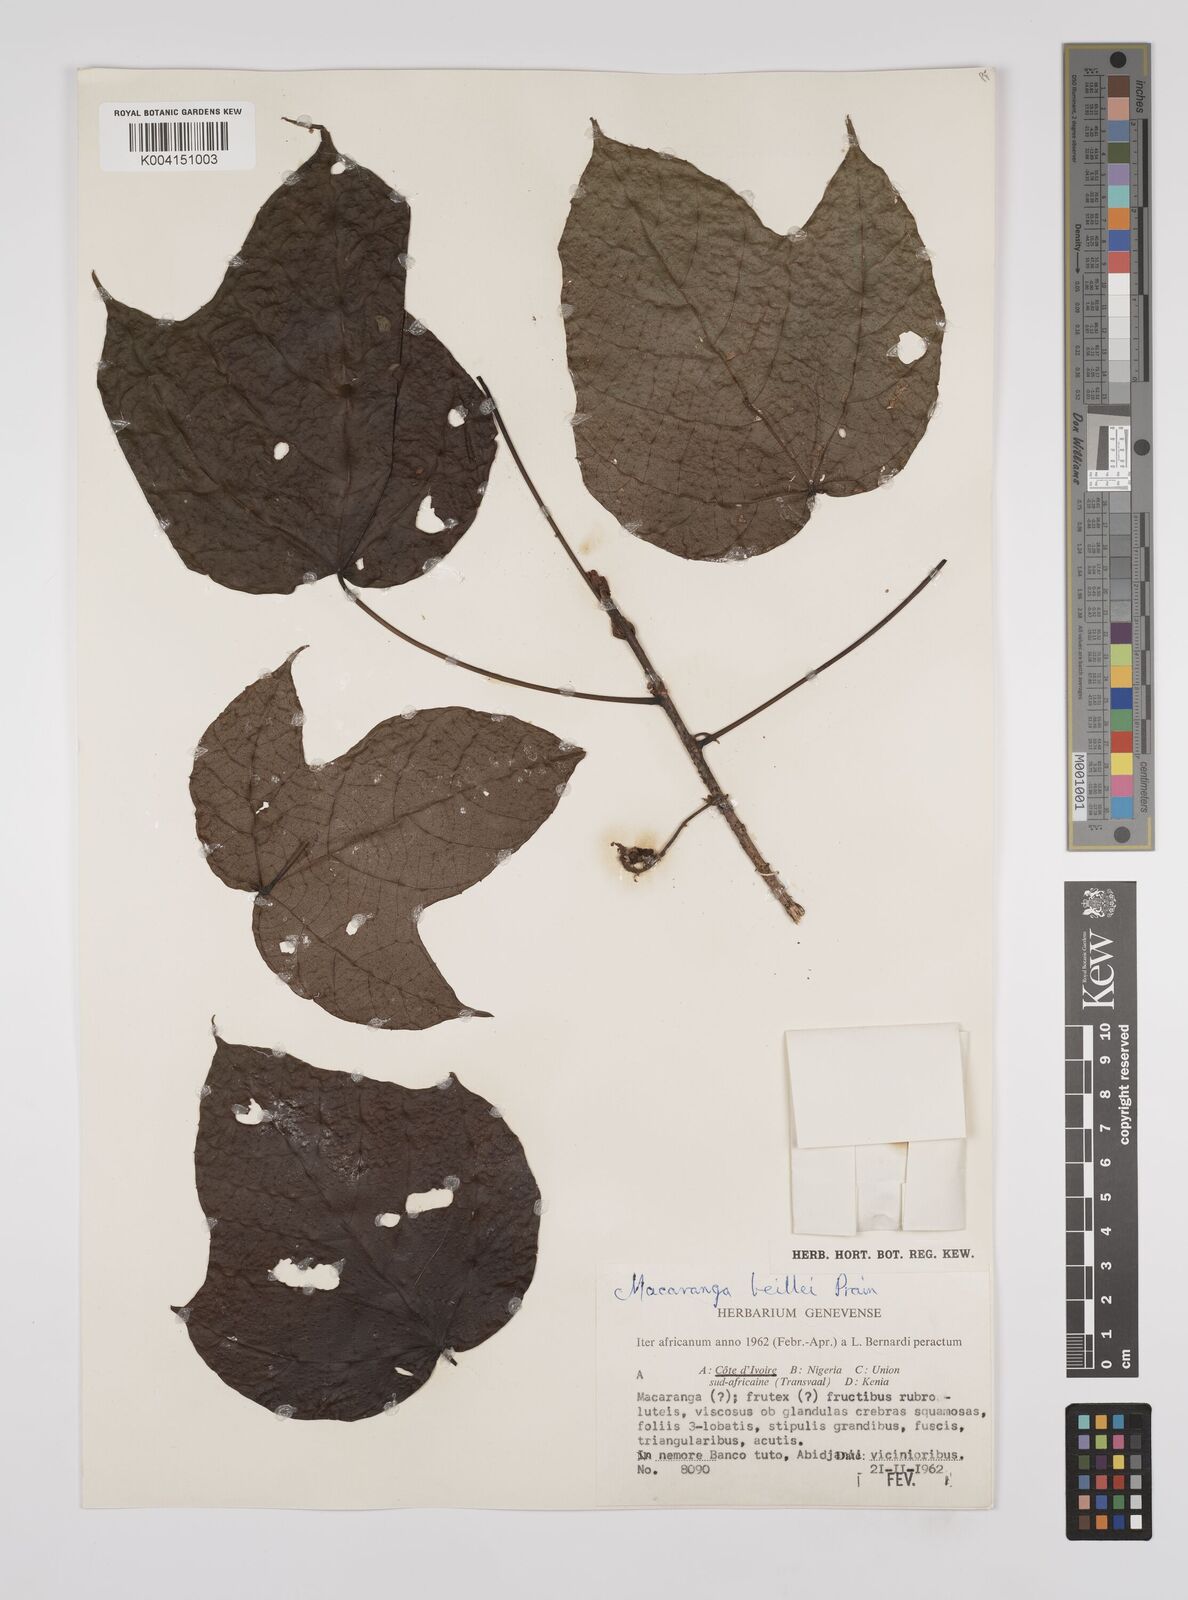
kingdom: Plantae
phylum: Tracheophyta
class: Magnoliopsida
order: Malpighiales
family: Euphorbiaceae
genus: Macaranga
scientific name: Macaranga beillei
